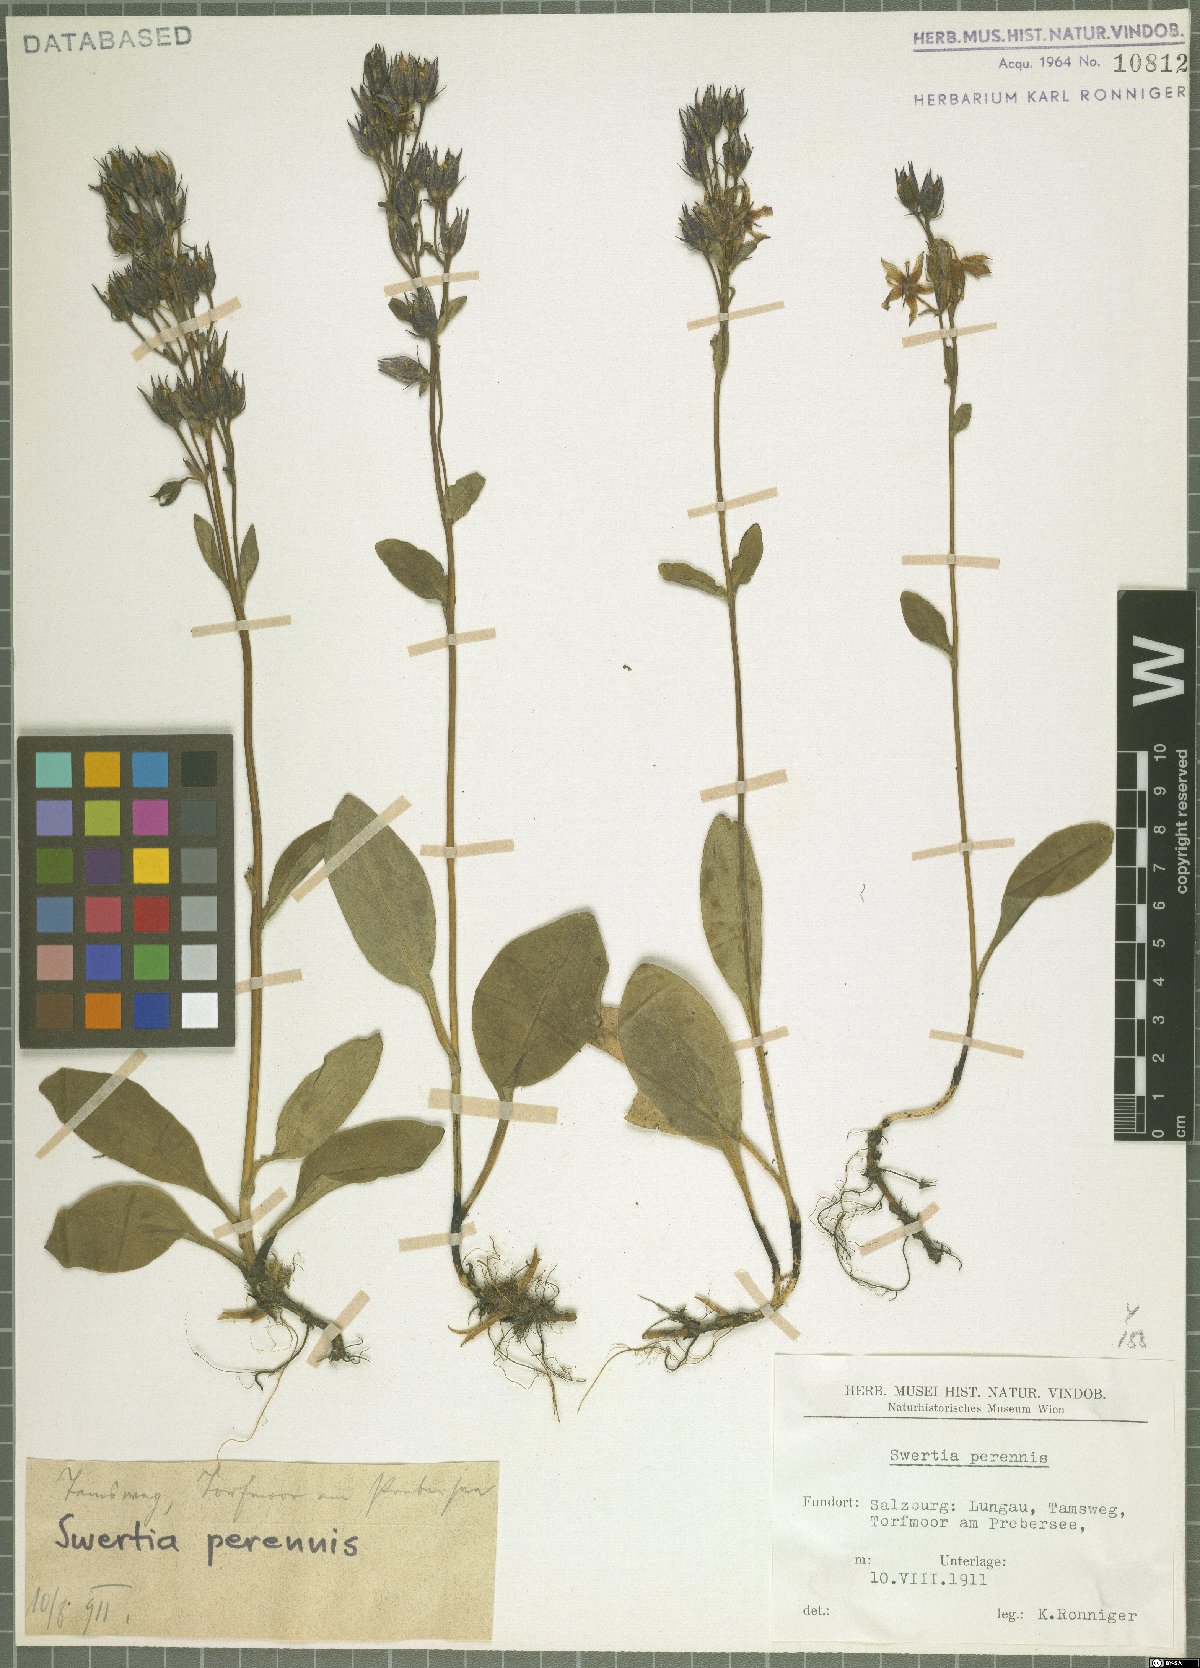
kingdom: Plantae
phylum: Tracheophyta
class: Magnoliopsida
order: Gentianales
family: Gentianaceae
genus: Swertia
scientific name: Swertia perennis
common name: Alpine bog swertia
